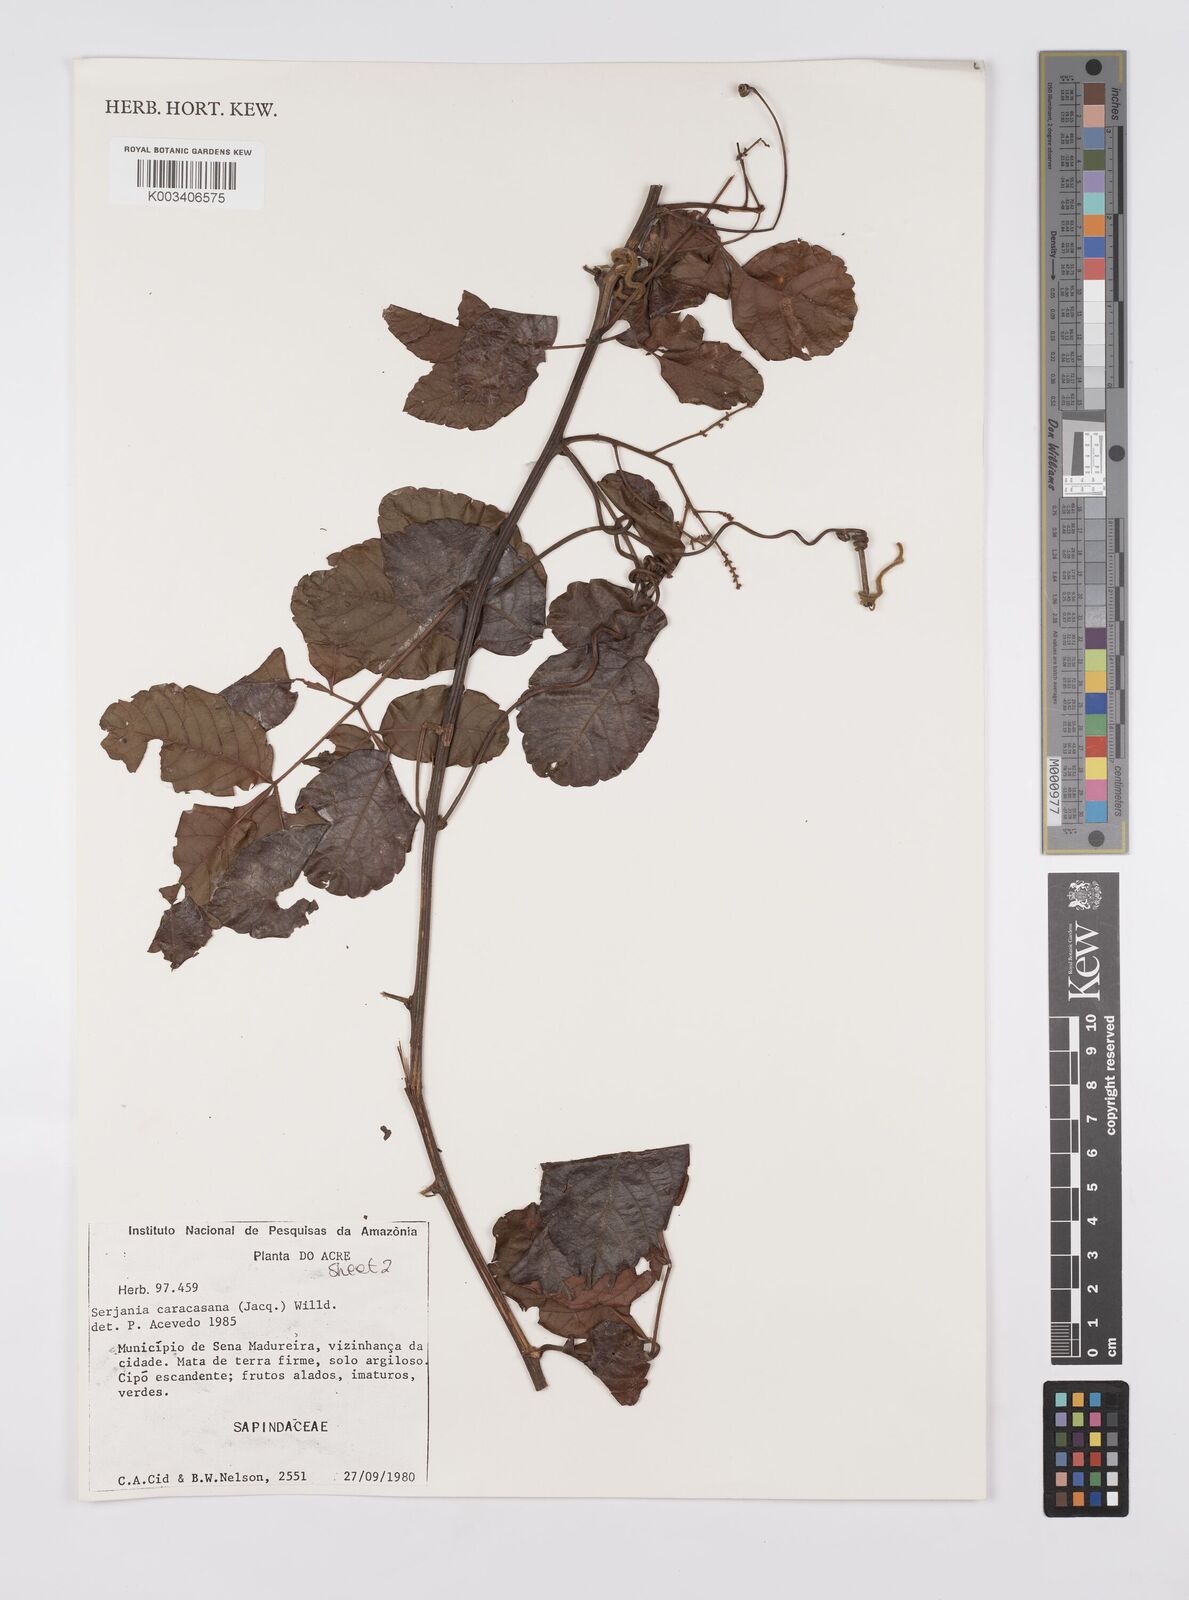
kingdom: Plantae
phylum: Tracheophyta
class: Magnoliopsida
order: Sapindales
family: Sapindaceae
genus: Serjania
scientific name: Serjania caracasana
